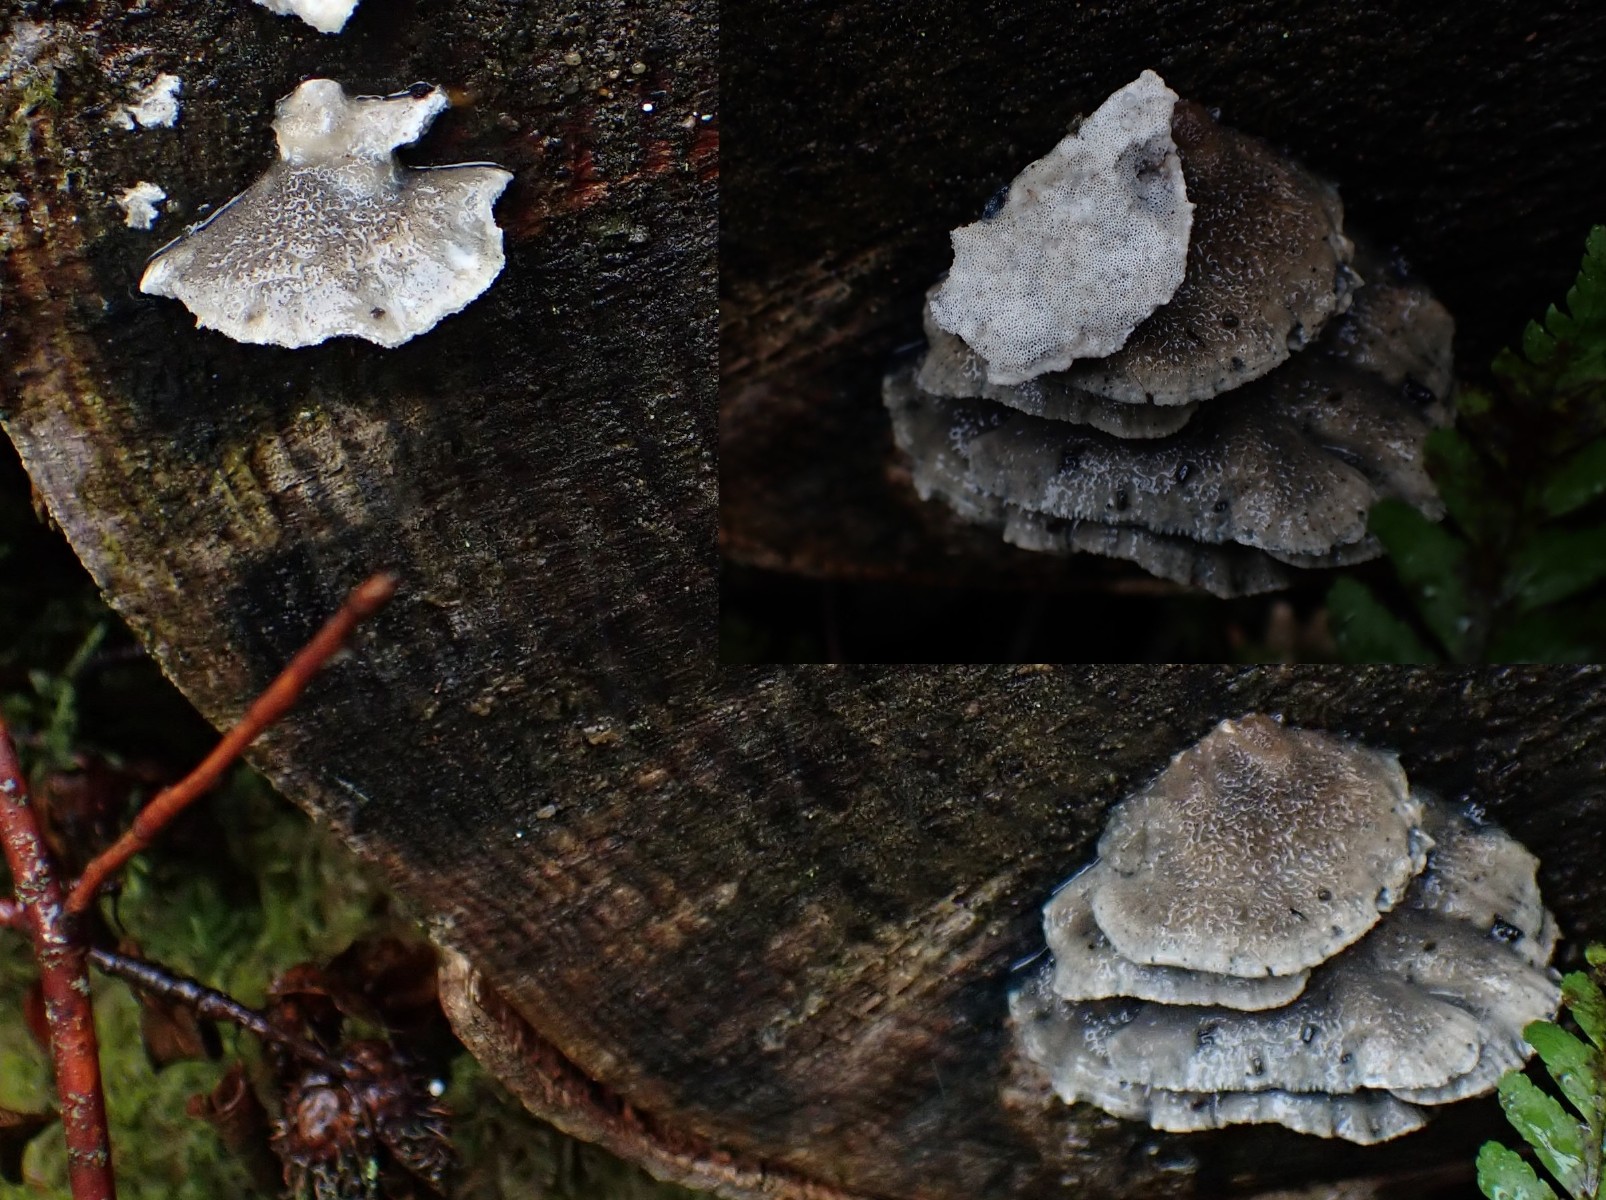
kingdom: Fungi
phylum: Basidiomycota
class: Agaricomycetes
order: Polyporales
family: Polyporaceae
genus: Cyanosporus
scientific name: Cyanosporus caesius
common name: blålig kødporesvamp
